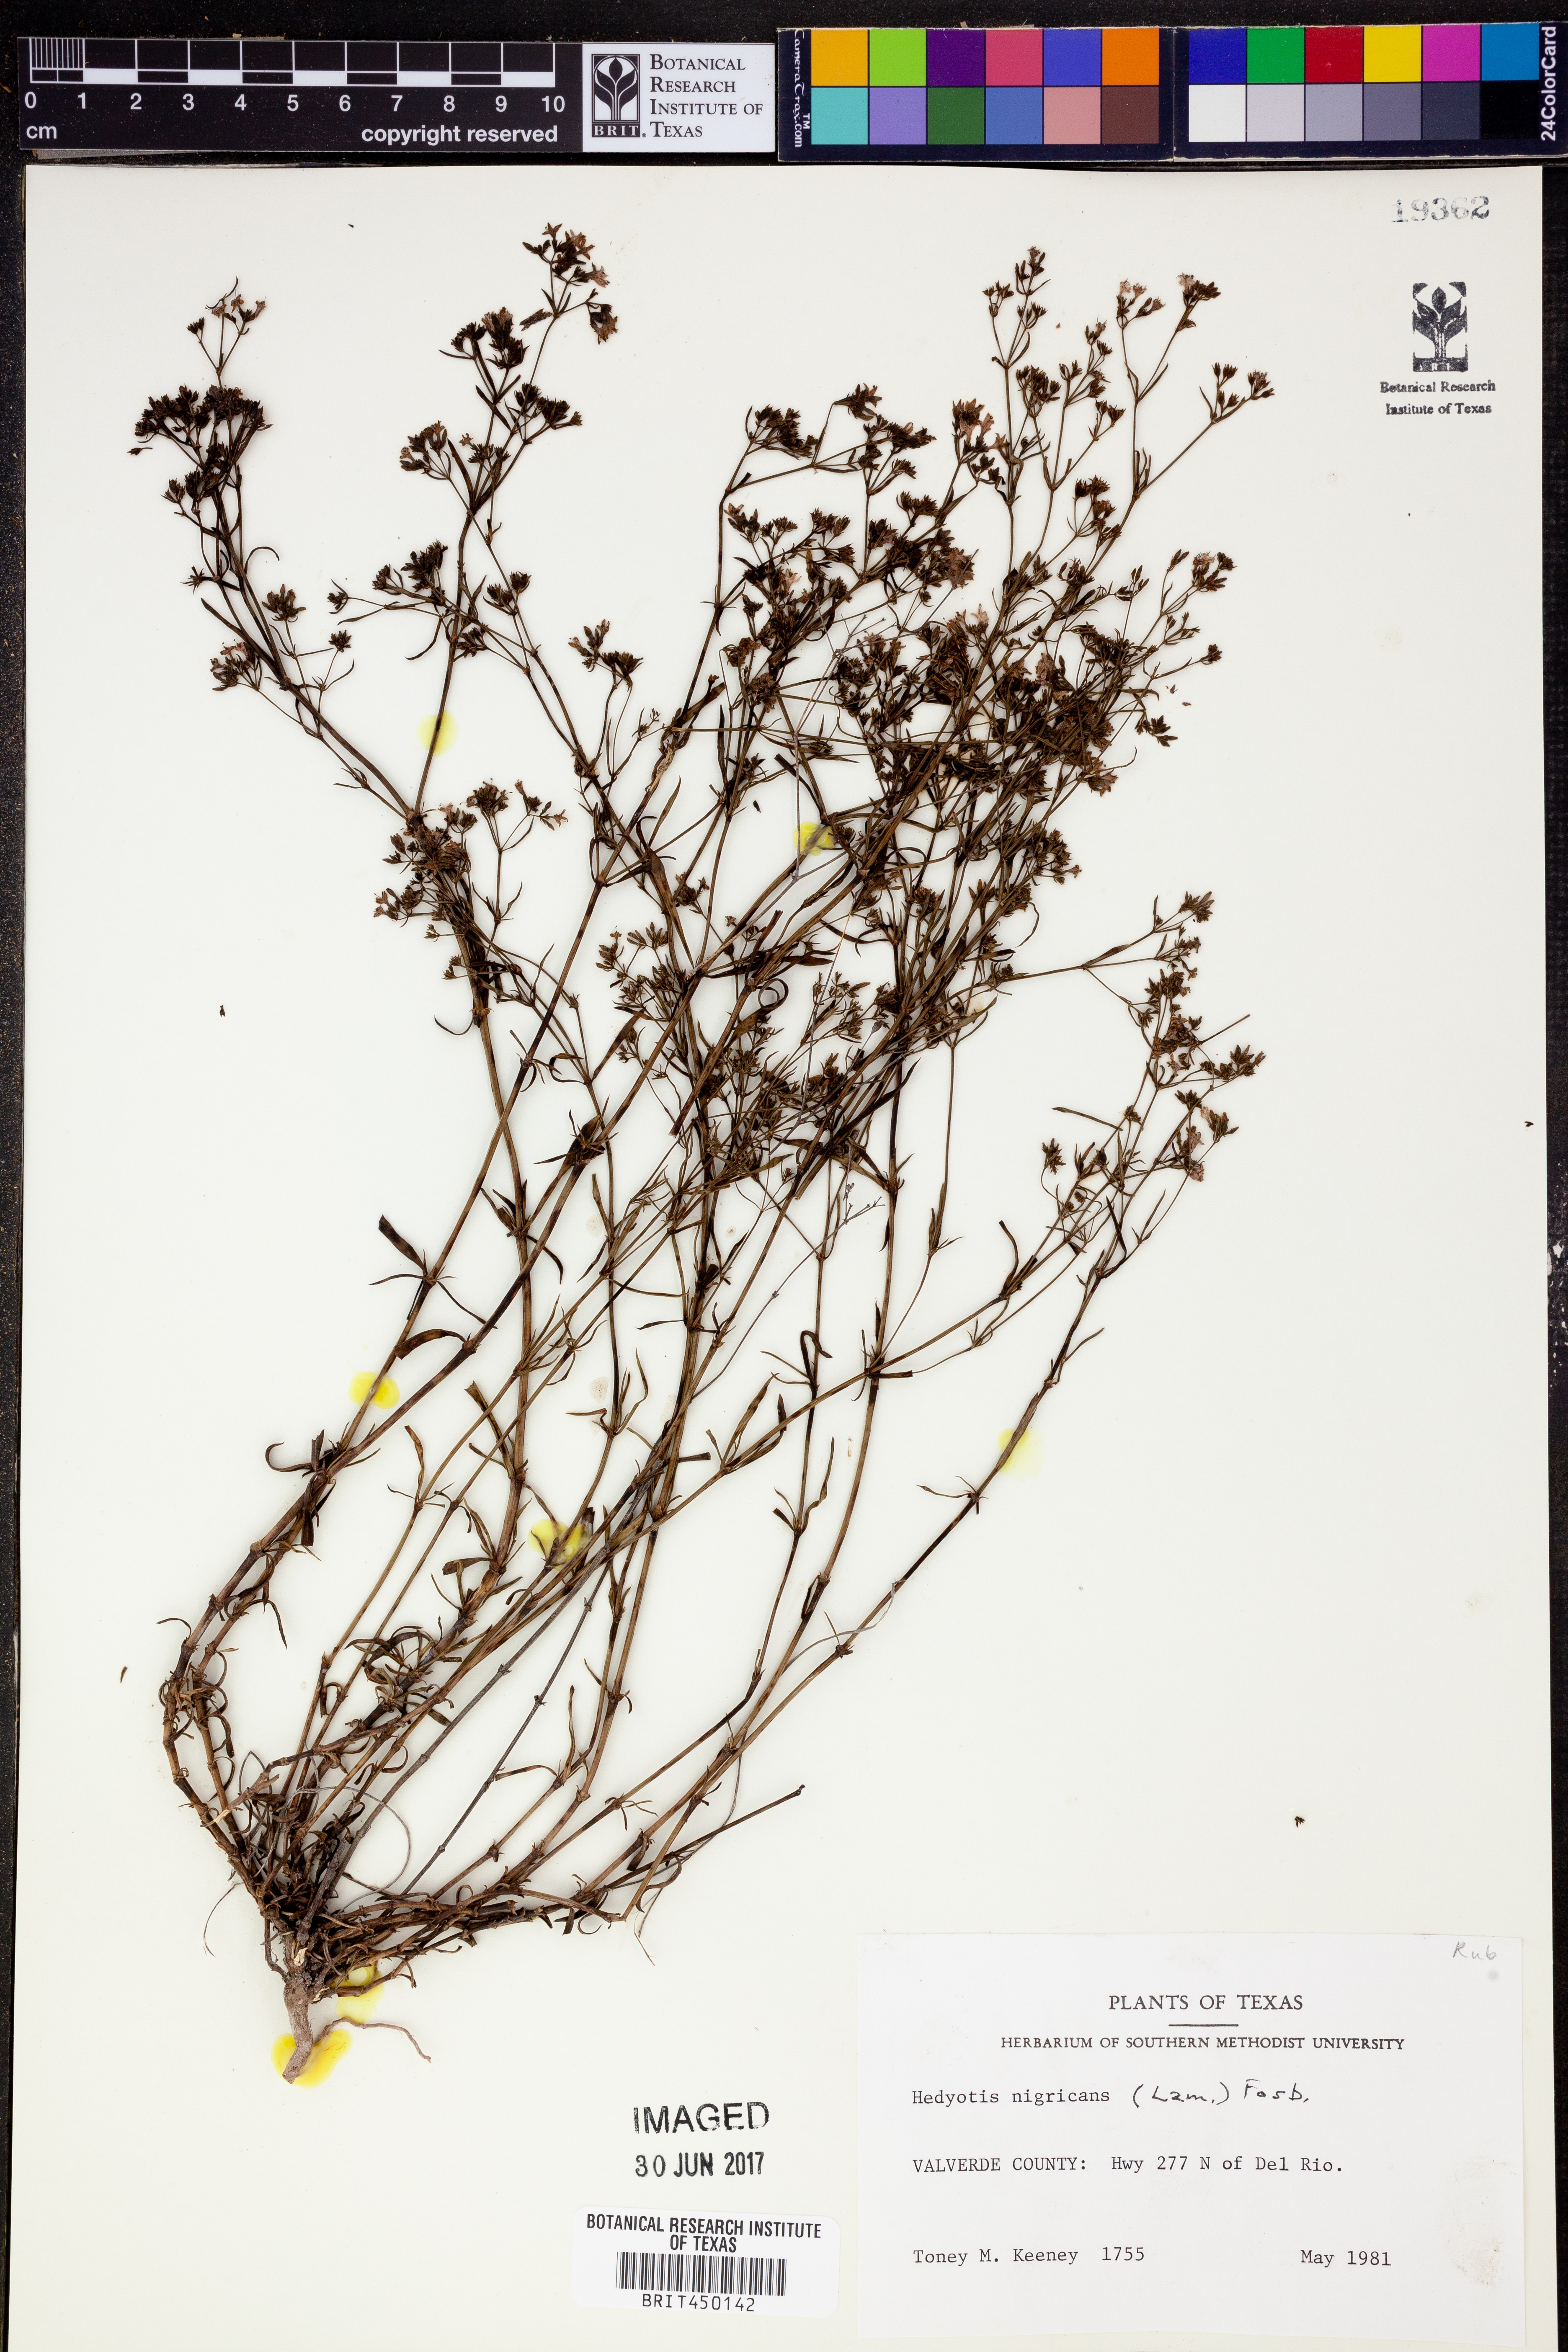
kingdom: Plantae
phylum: Tracheophyta
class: Magnoliopsida
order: Gentianales
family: Rubiaceae
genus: Stenaria
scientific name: Stenaria nigricans
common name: Diamondflowers
